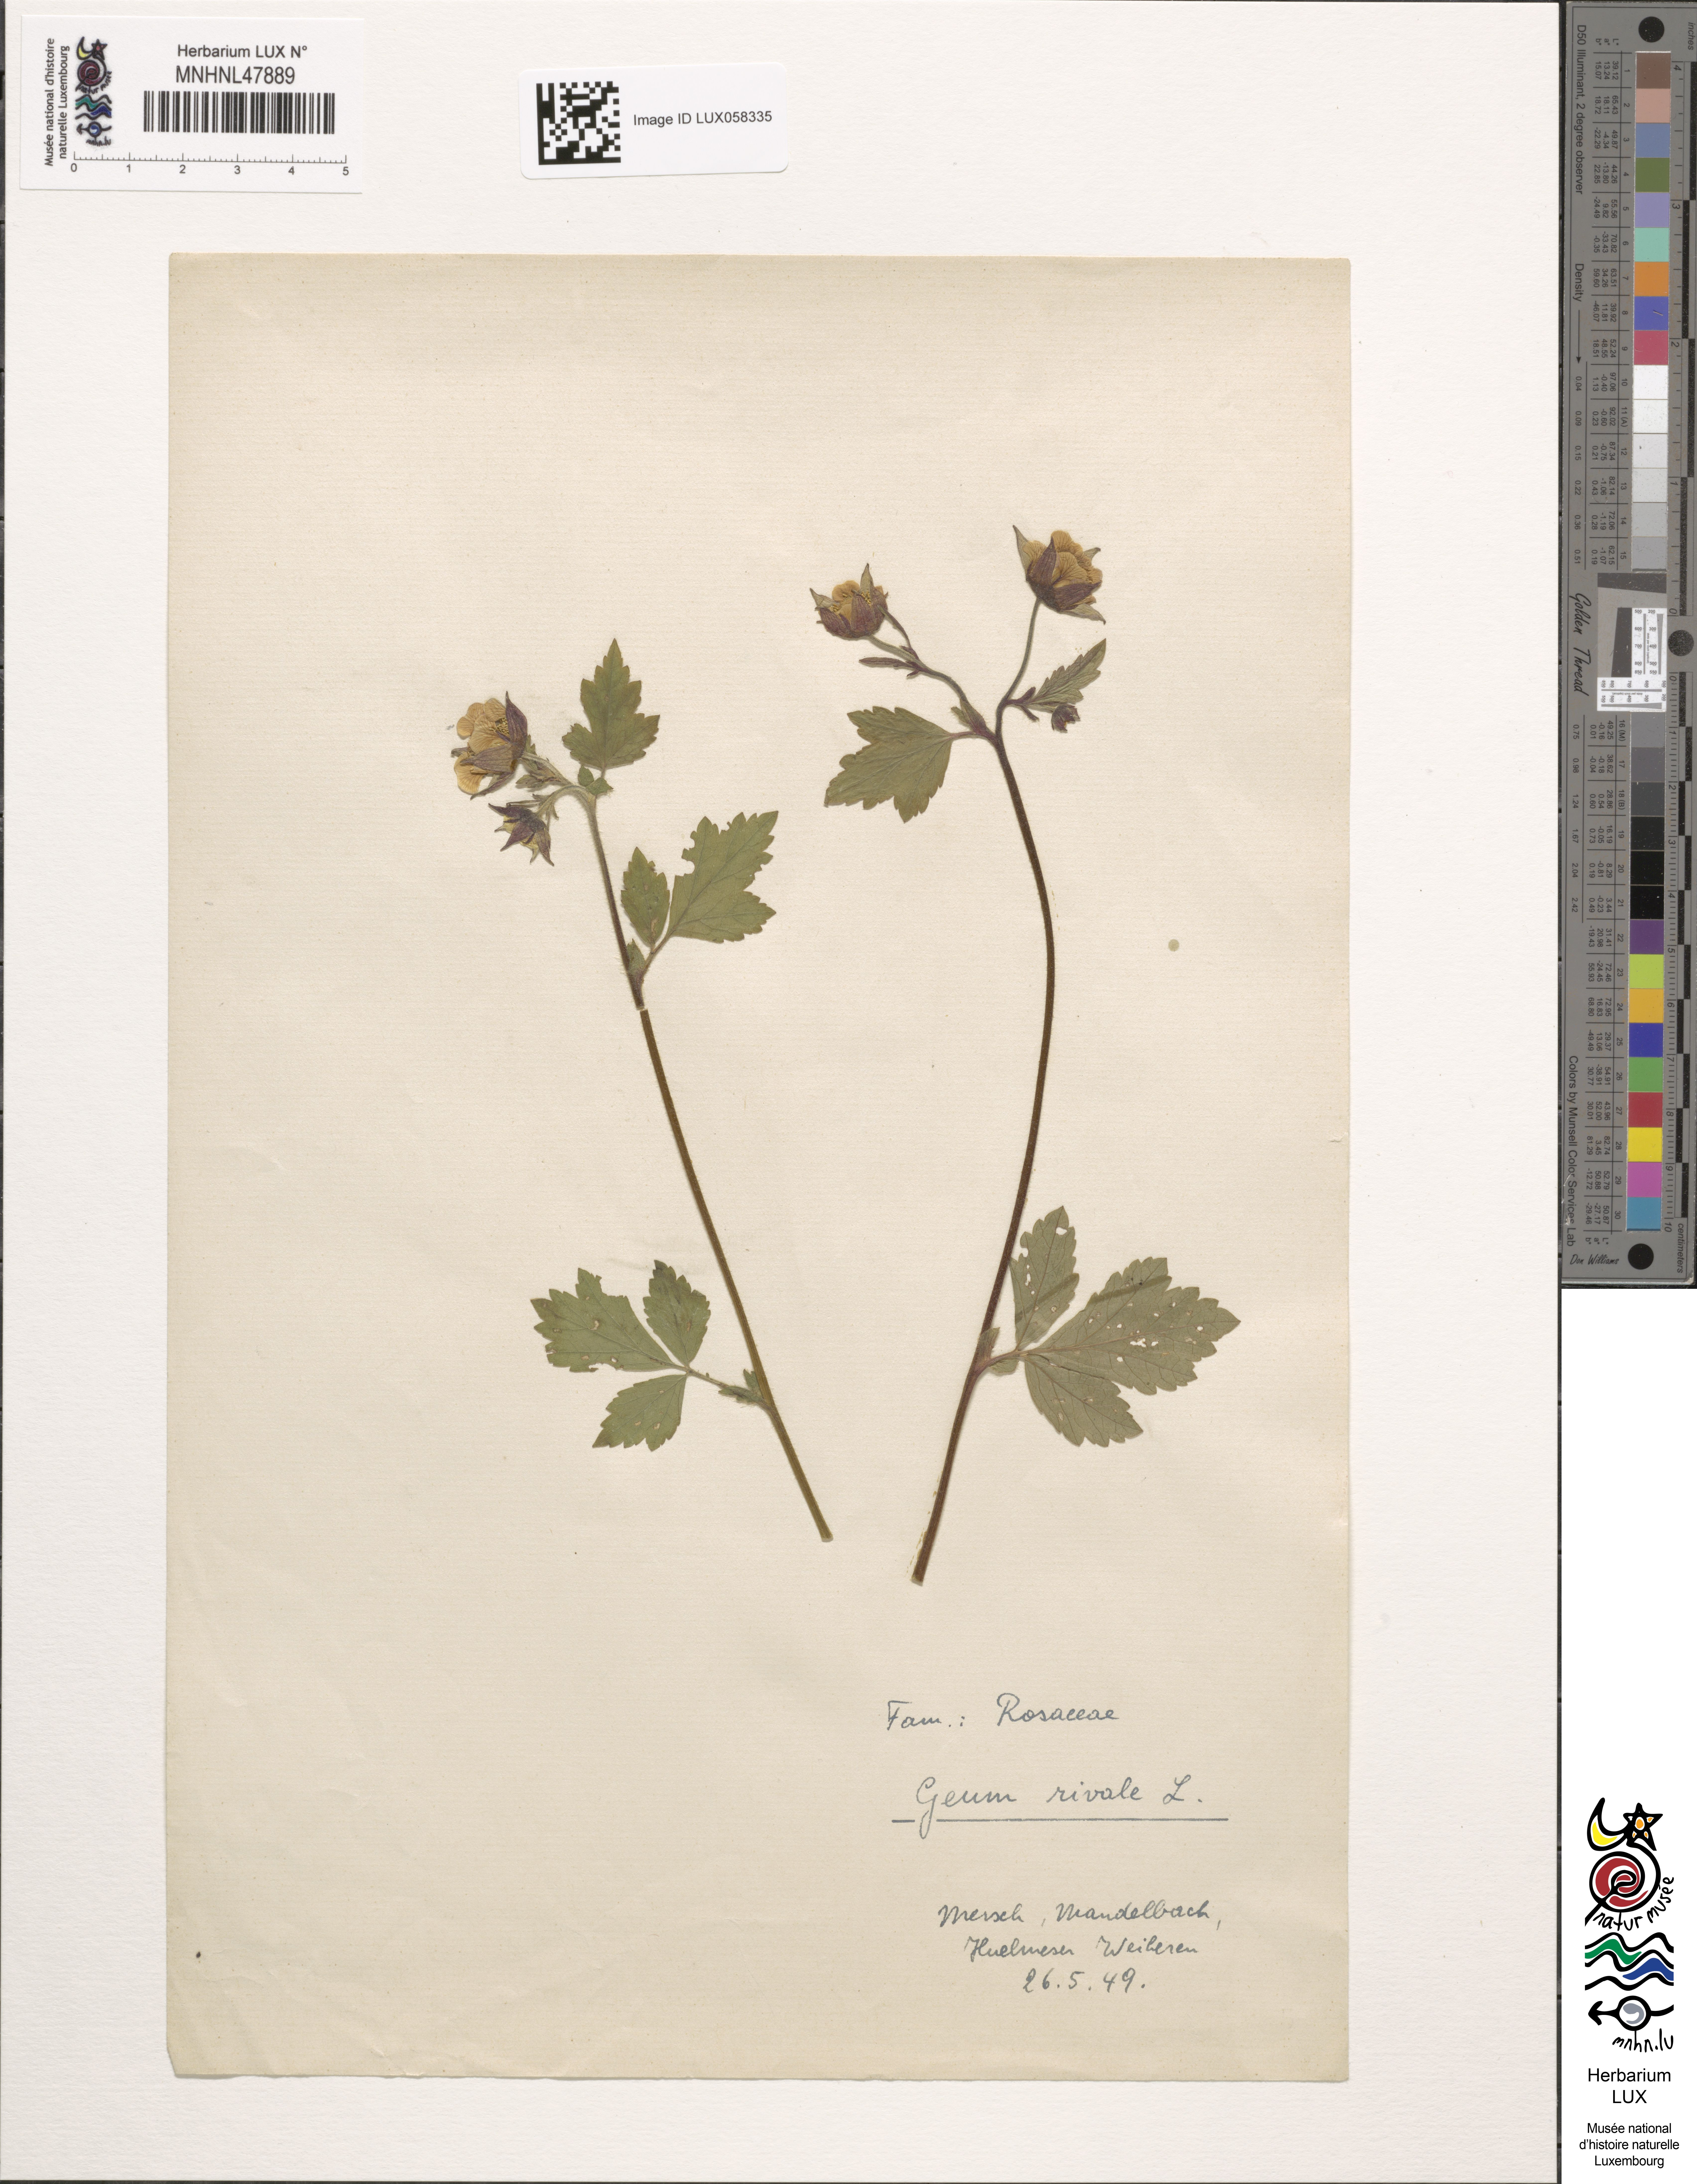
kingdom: Plantae
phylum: Tracheophyta
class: Magnoliopsida
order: Rosales
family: Rosaceae
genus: Geum
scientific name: Geum rivale
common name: Water avens
